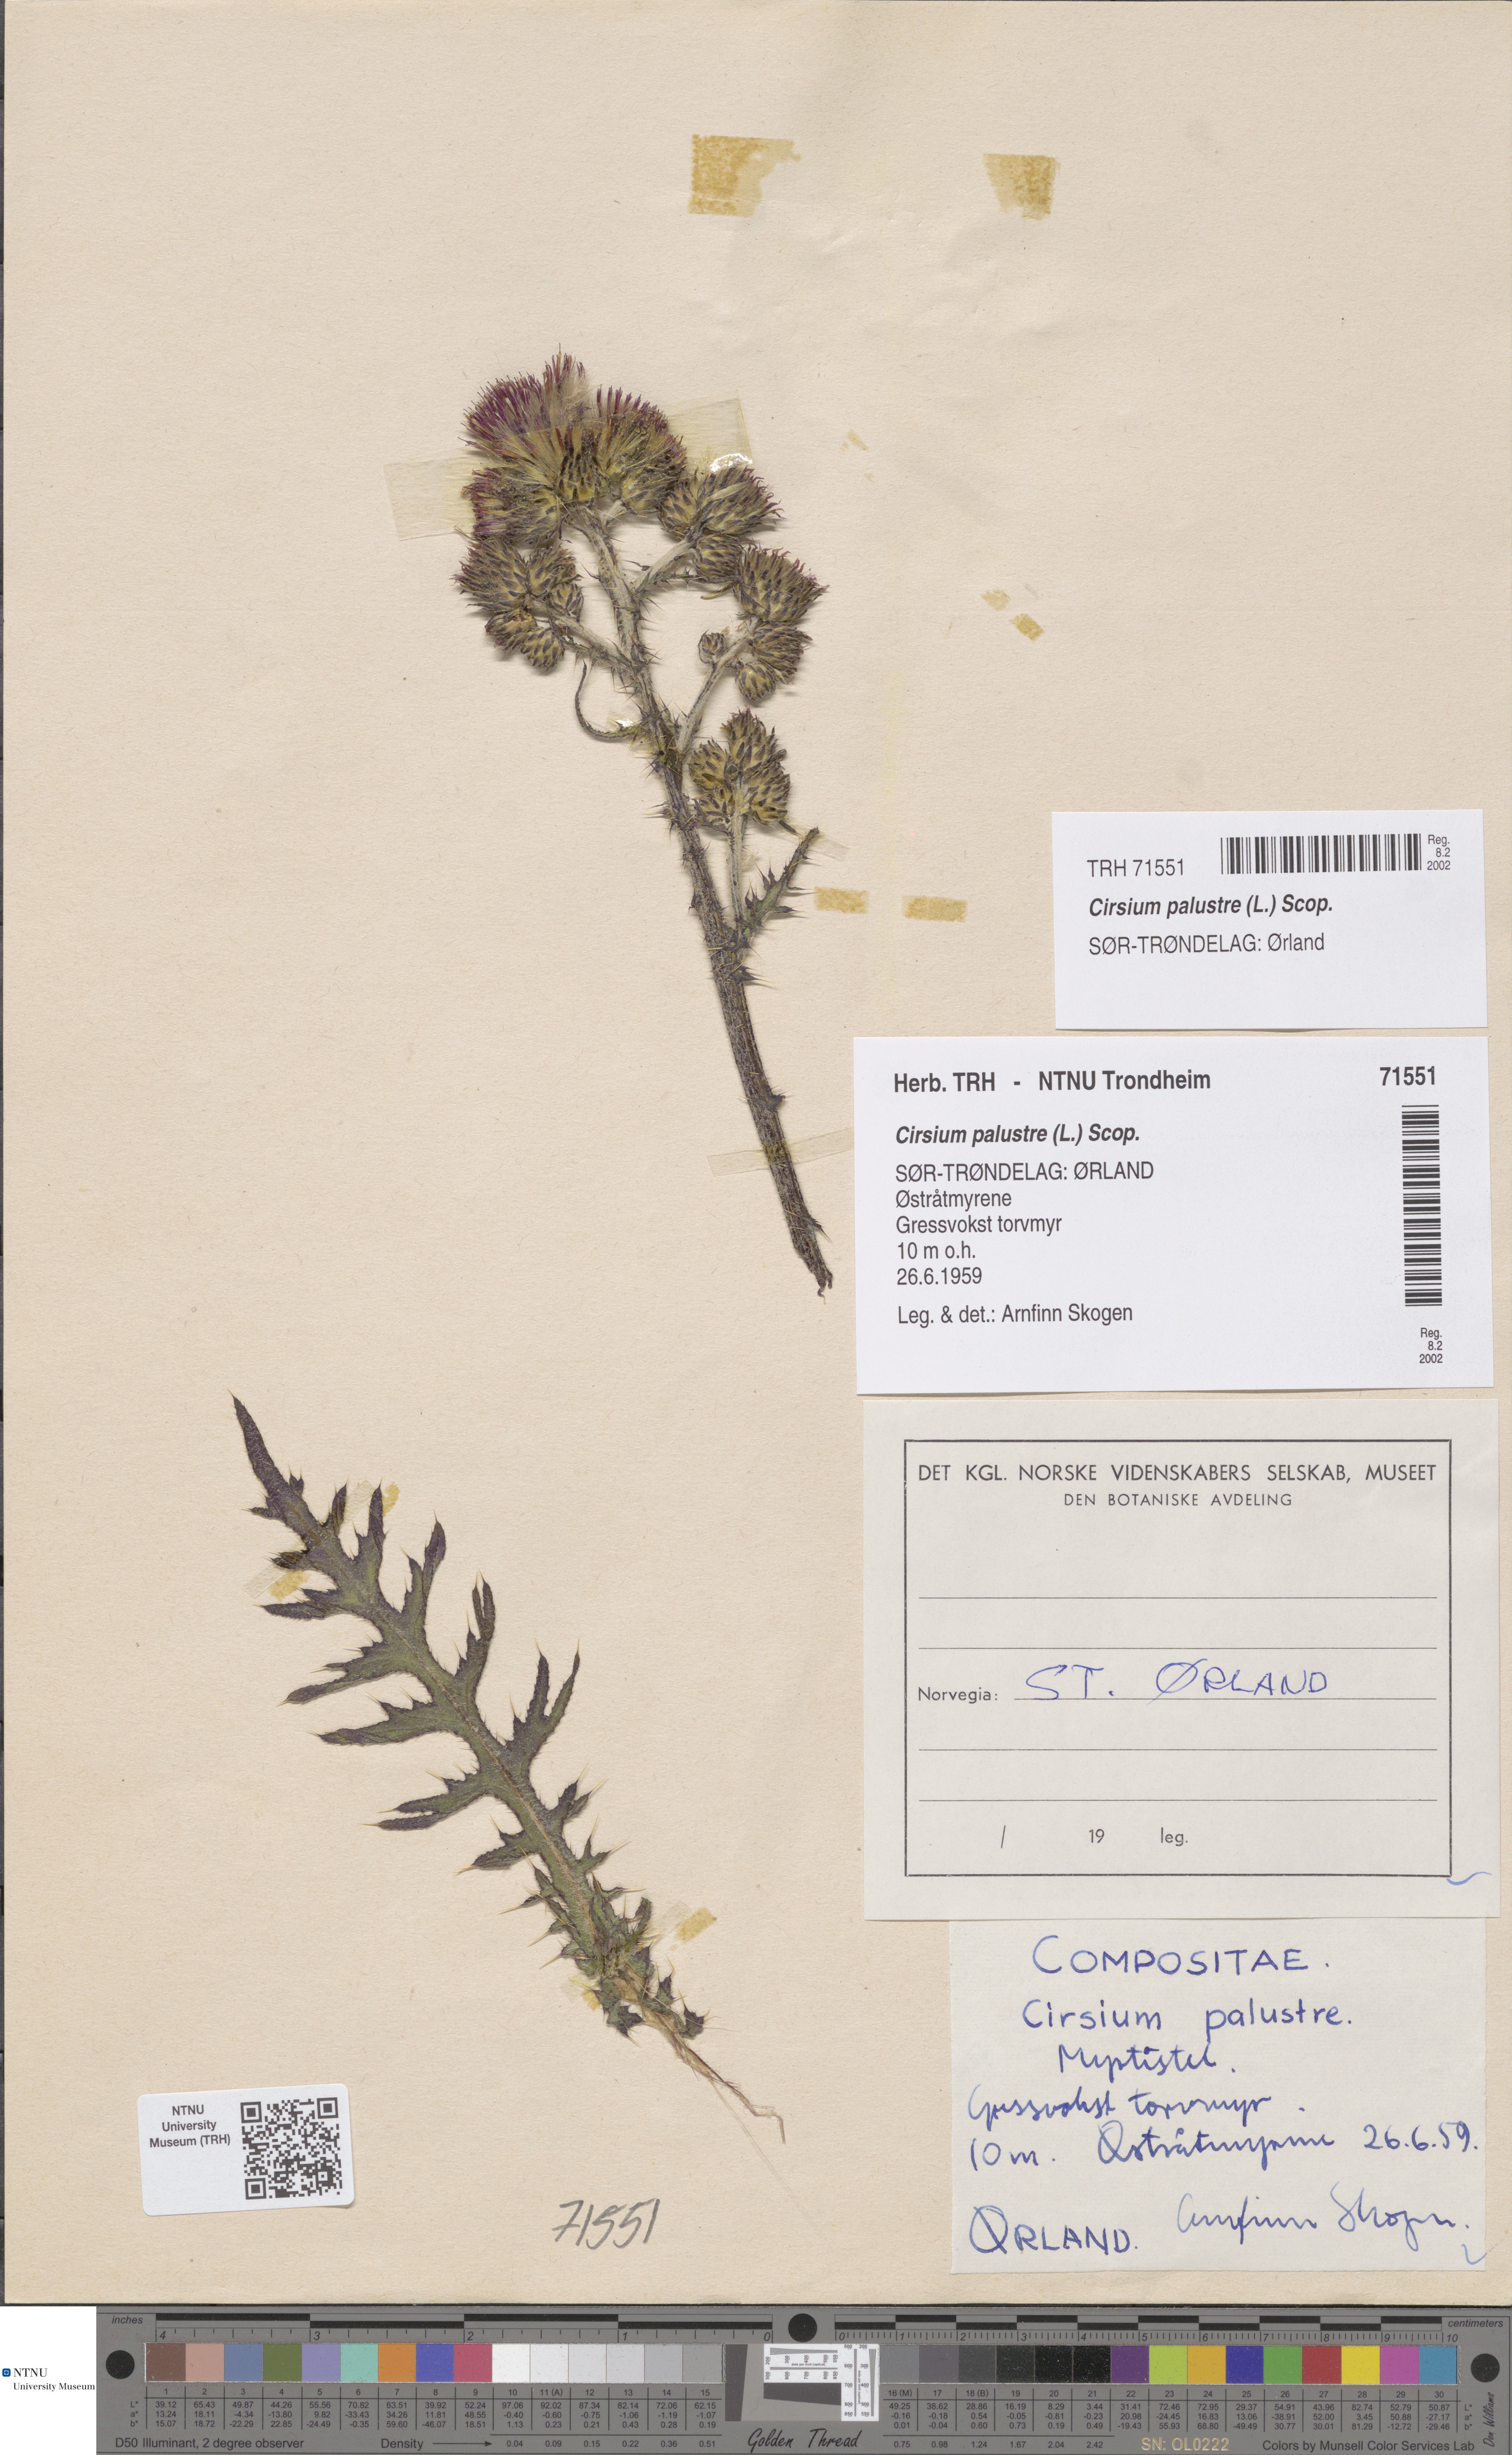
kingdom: Plantae
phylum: Tracheophyta
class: Magnoliopsida
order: Asterales
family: Asteraceae
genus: Cirsium
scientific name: Cirsium palustre
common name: Marsh thistle
